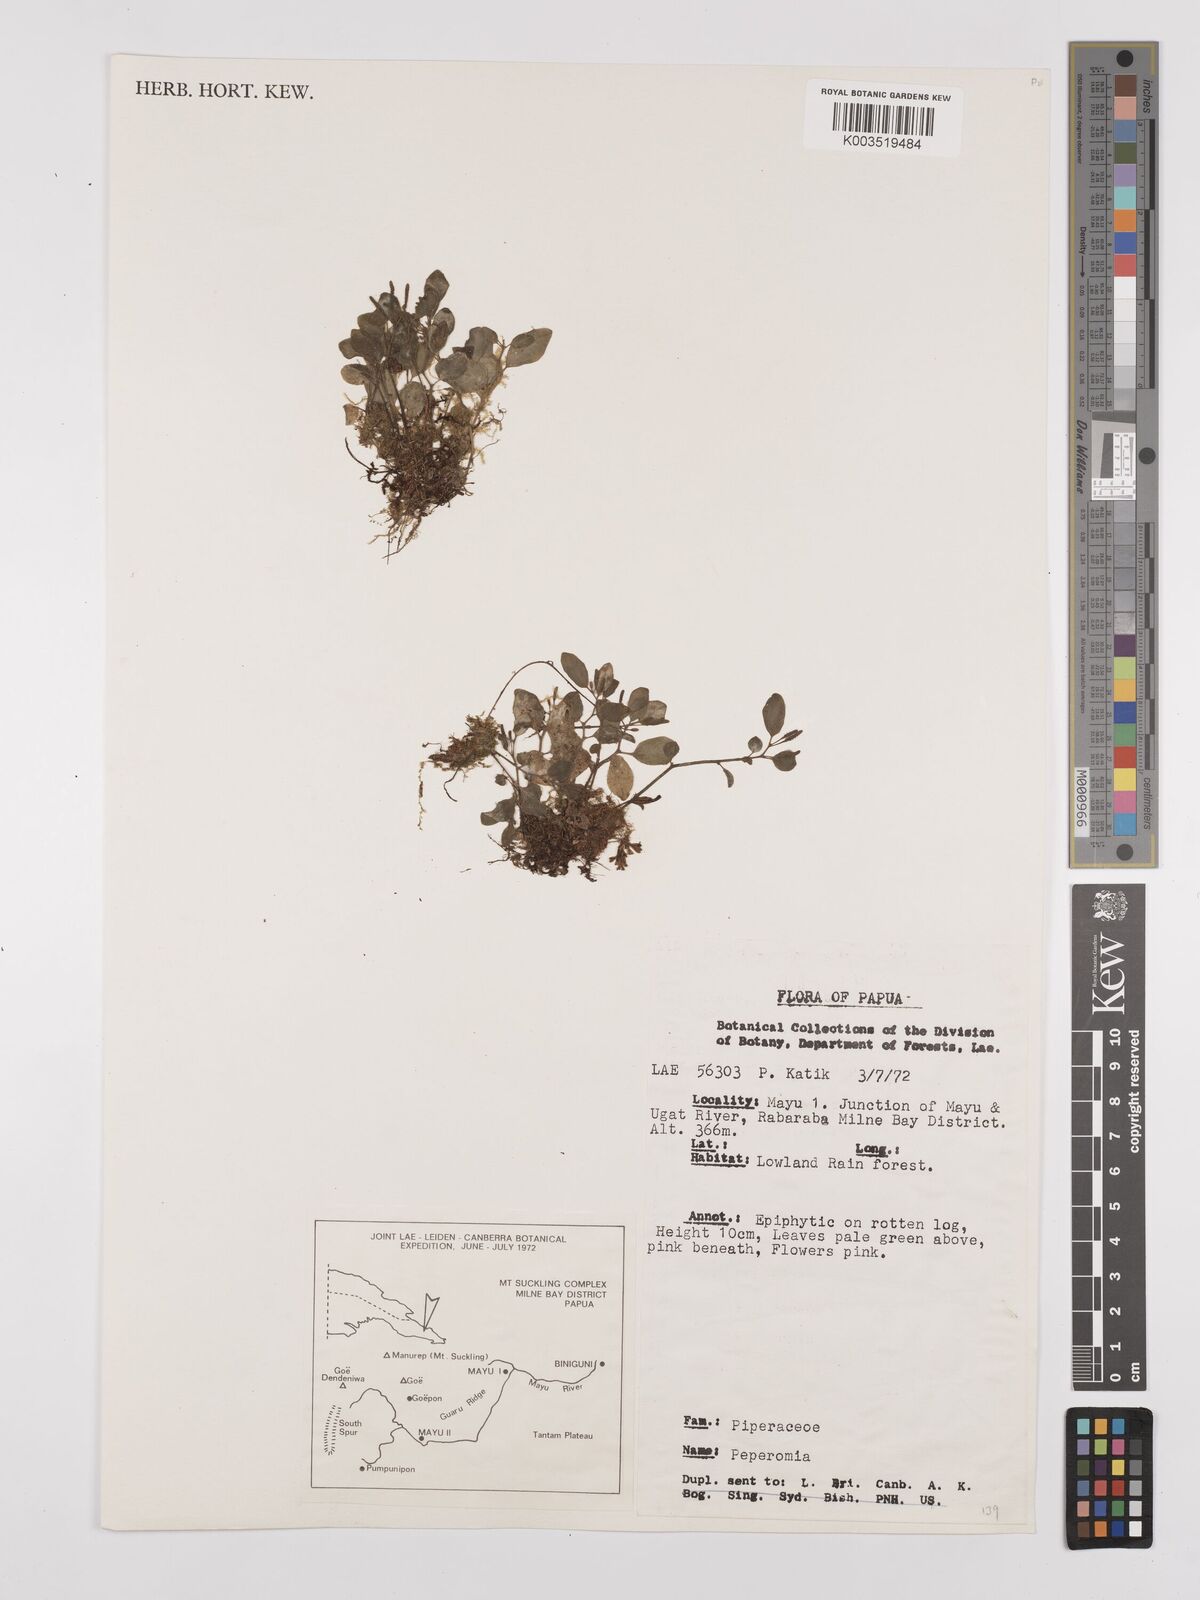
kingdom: Plantae
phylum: Tracheophyta
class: Magnoliopsida
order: Piperales
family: Piperaceae
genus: Peperomia
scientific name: Peperomia
